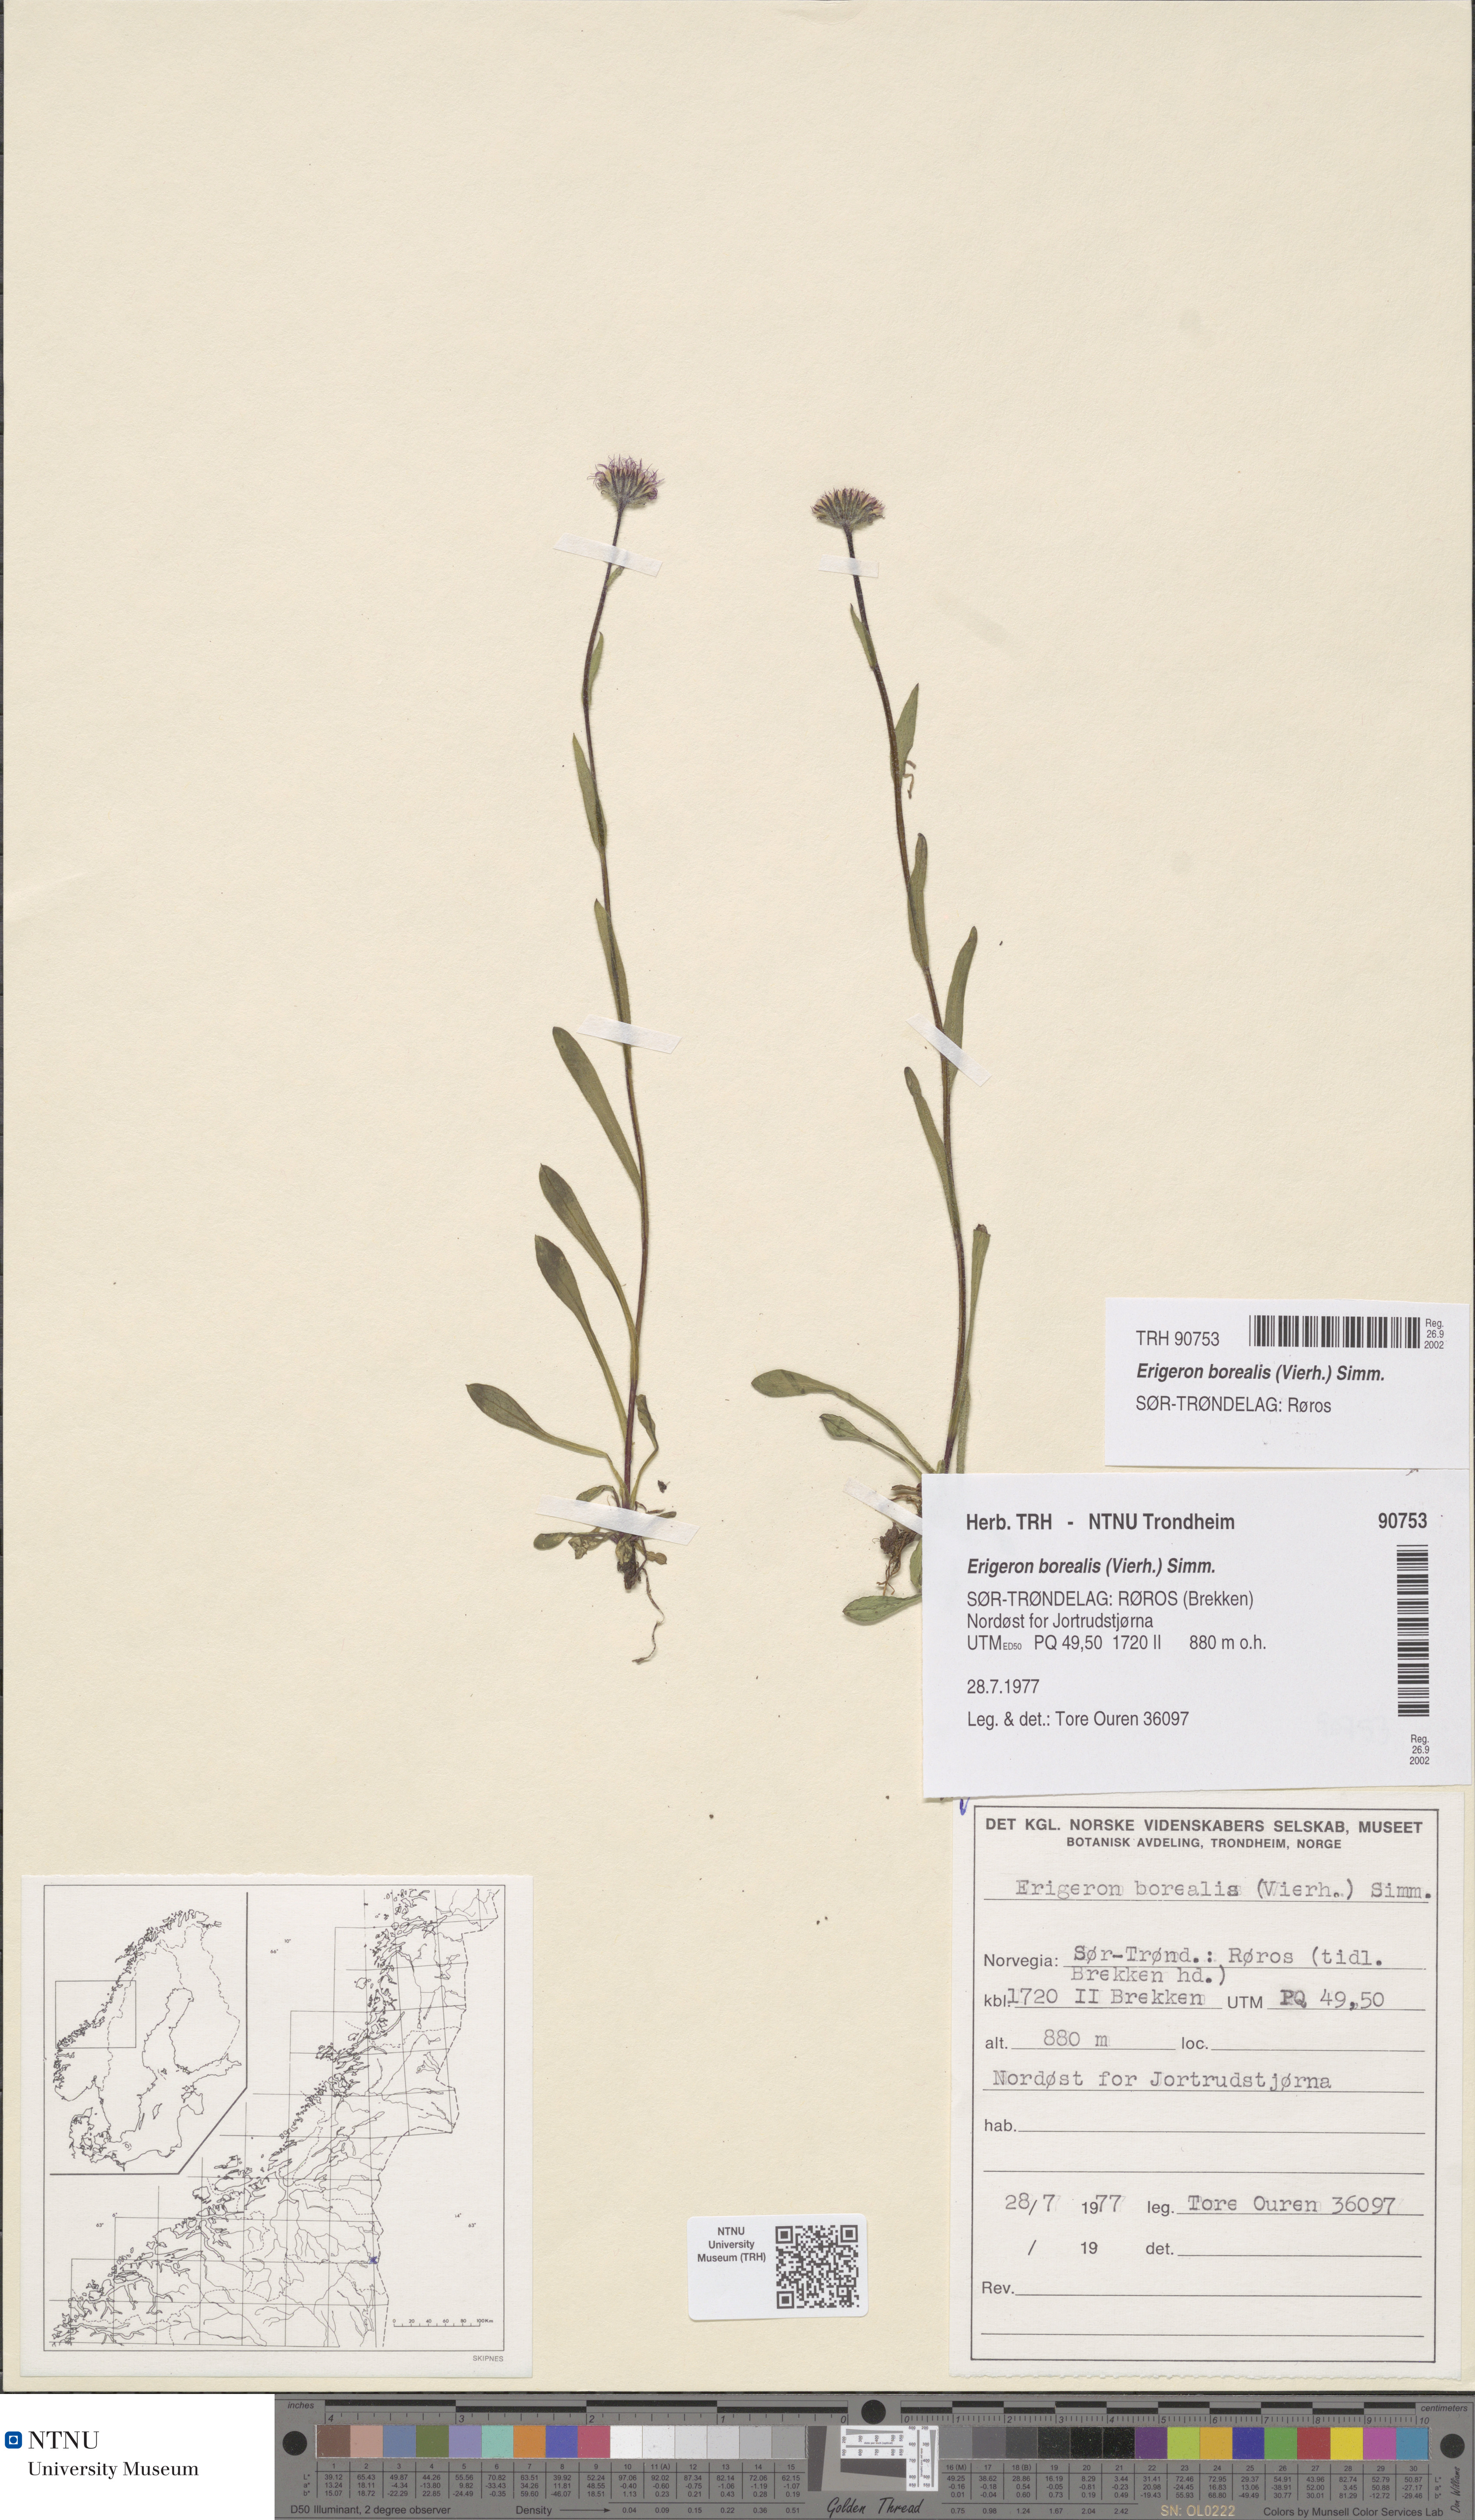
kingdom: Plantae
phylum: Tracheophyta
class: Magnoliopsida
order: Asterales
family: Asteraceae
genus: Erigeron
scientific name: Erigeron borealis
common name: Alpine fleabane
